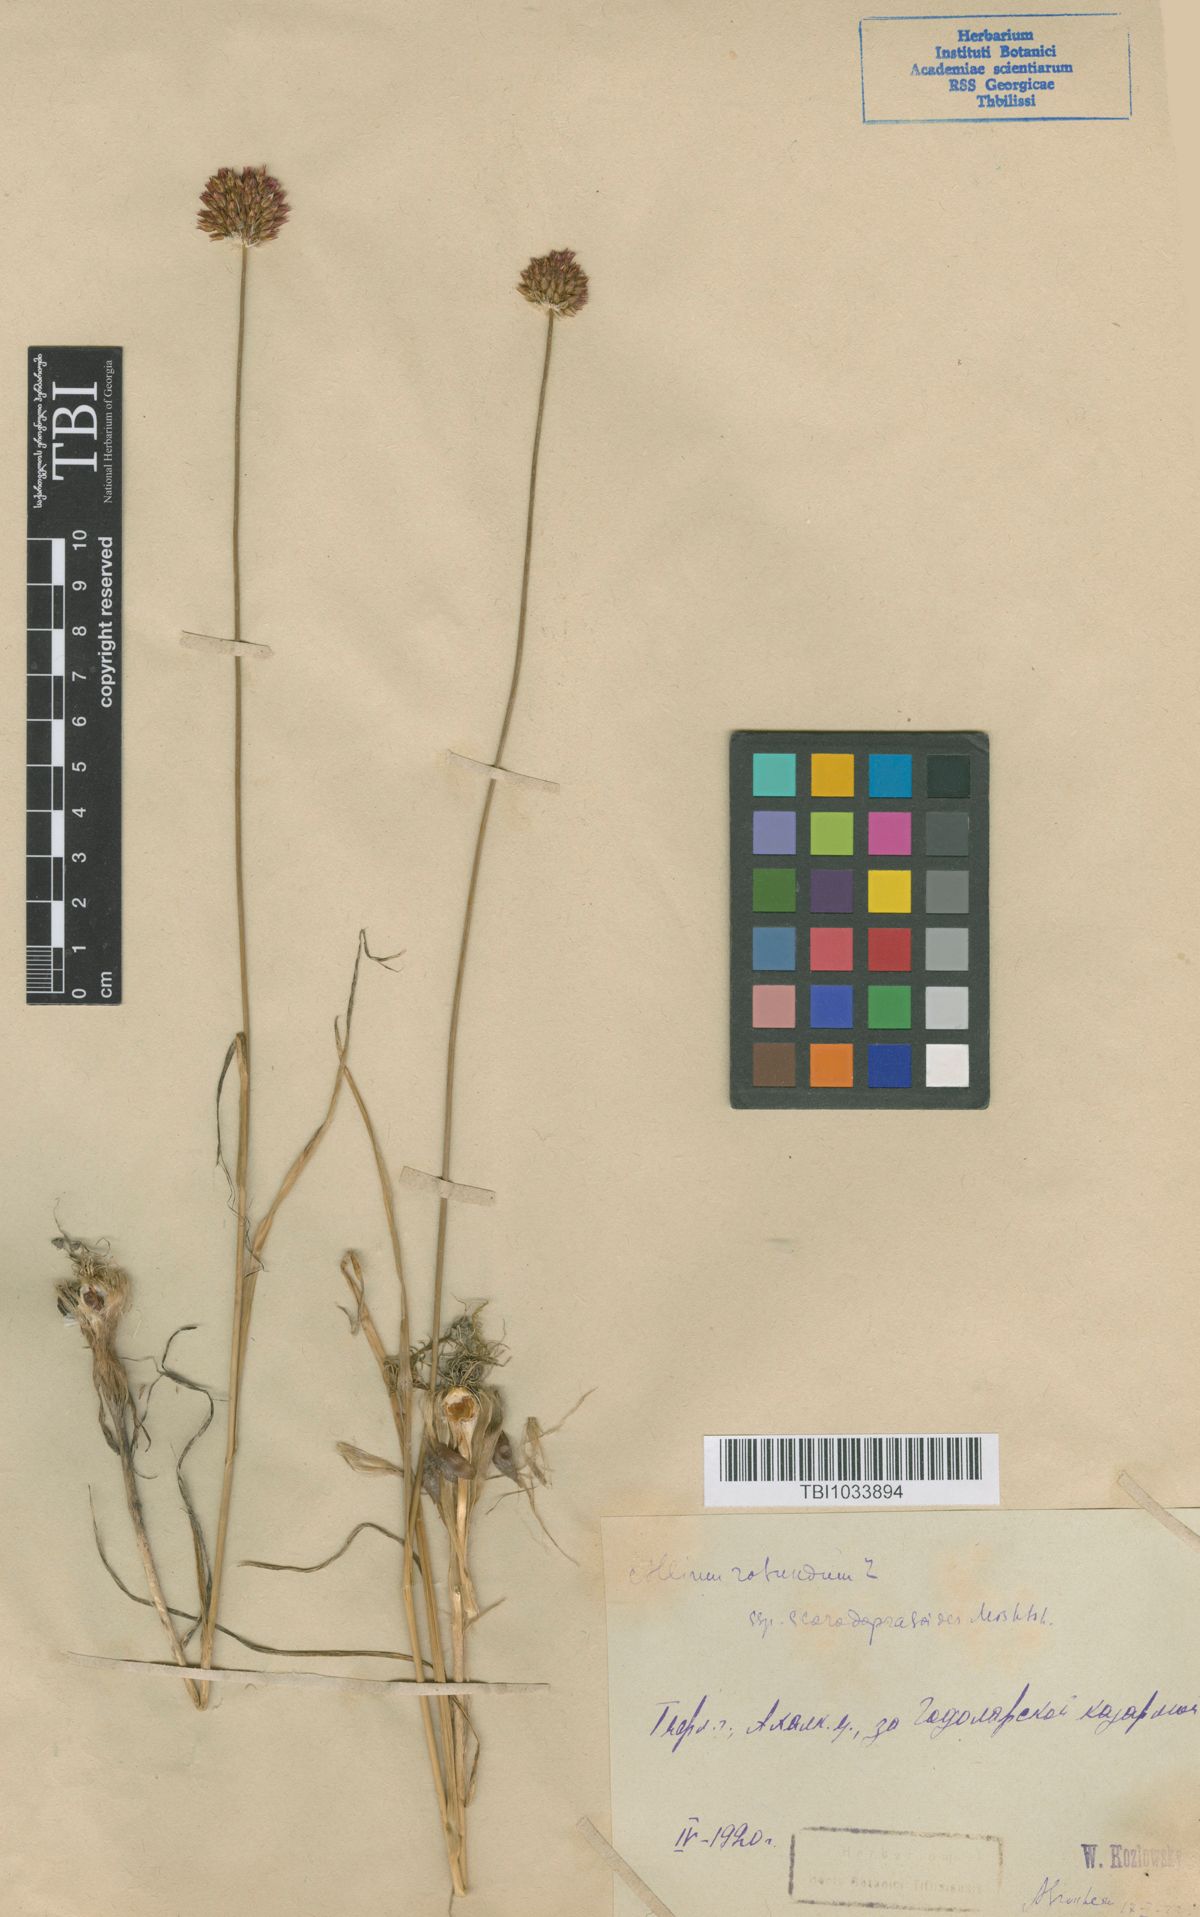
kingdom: Plantae
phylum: Tracheophyta
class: Liliopsida
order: Asparagales
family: Amaryllidaceae
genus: Allium
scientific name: Allium rotundum
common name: Sand leek
